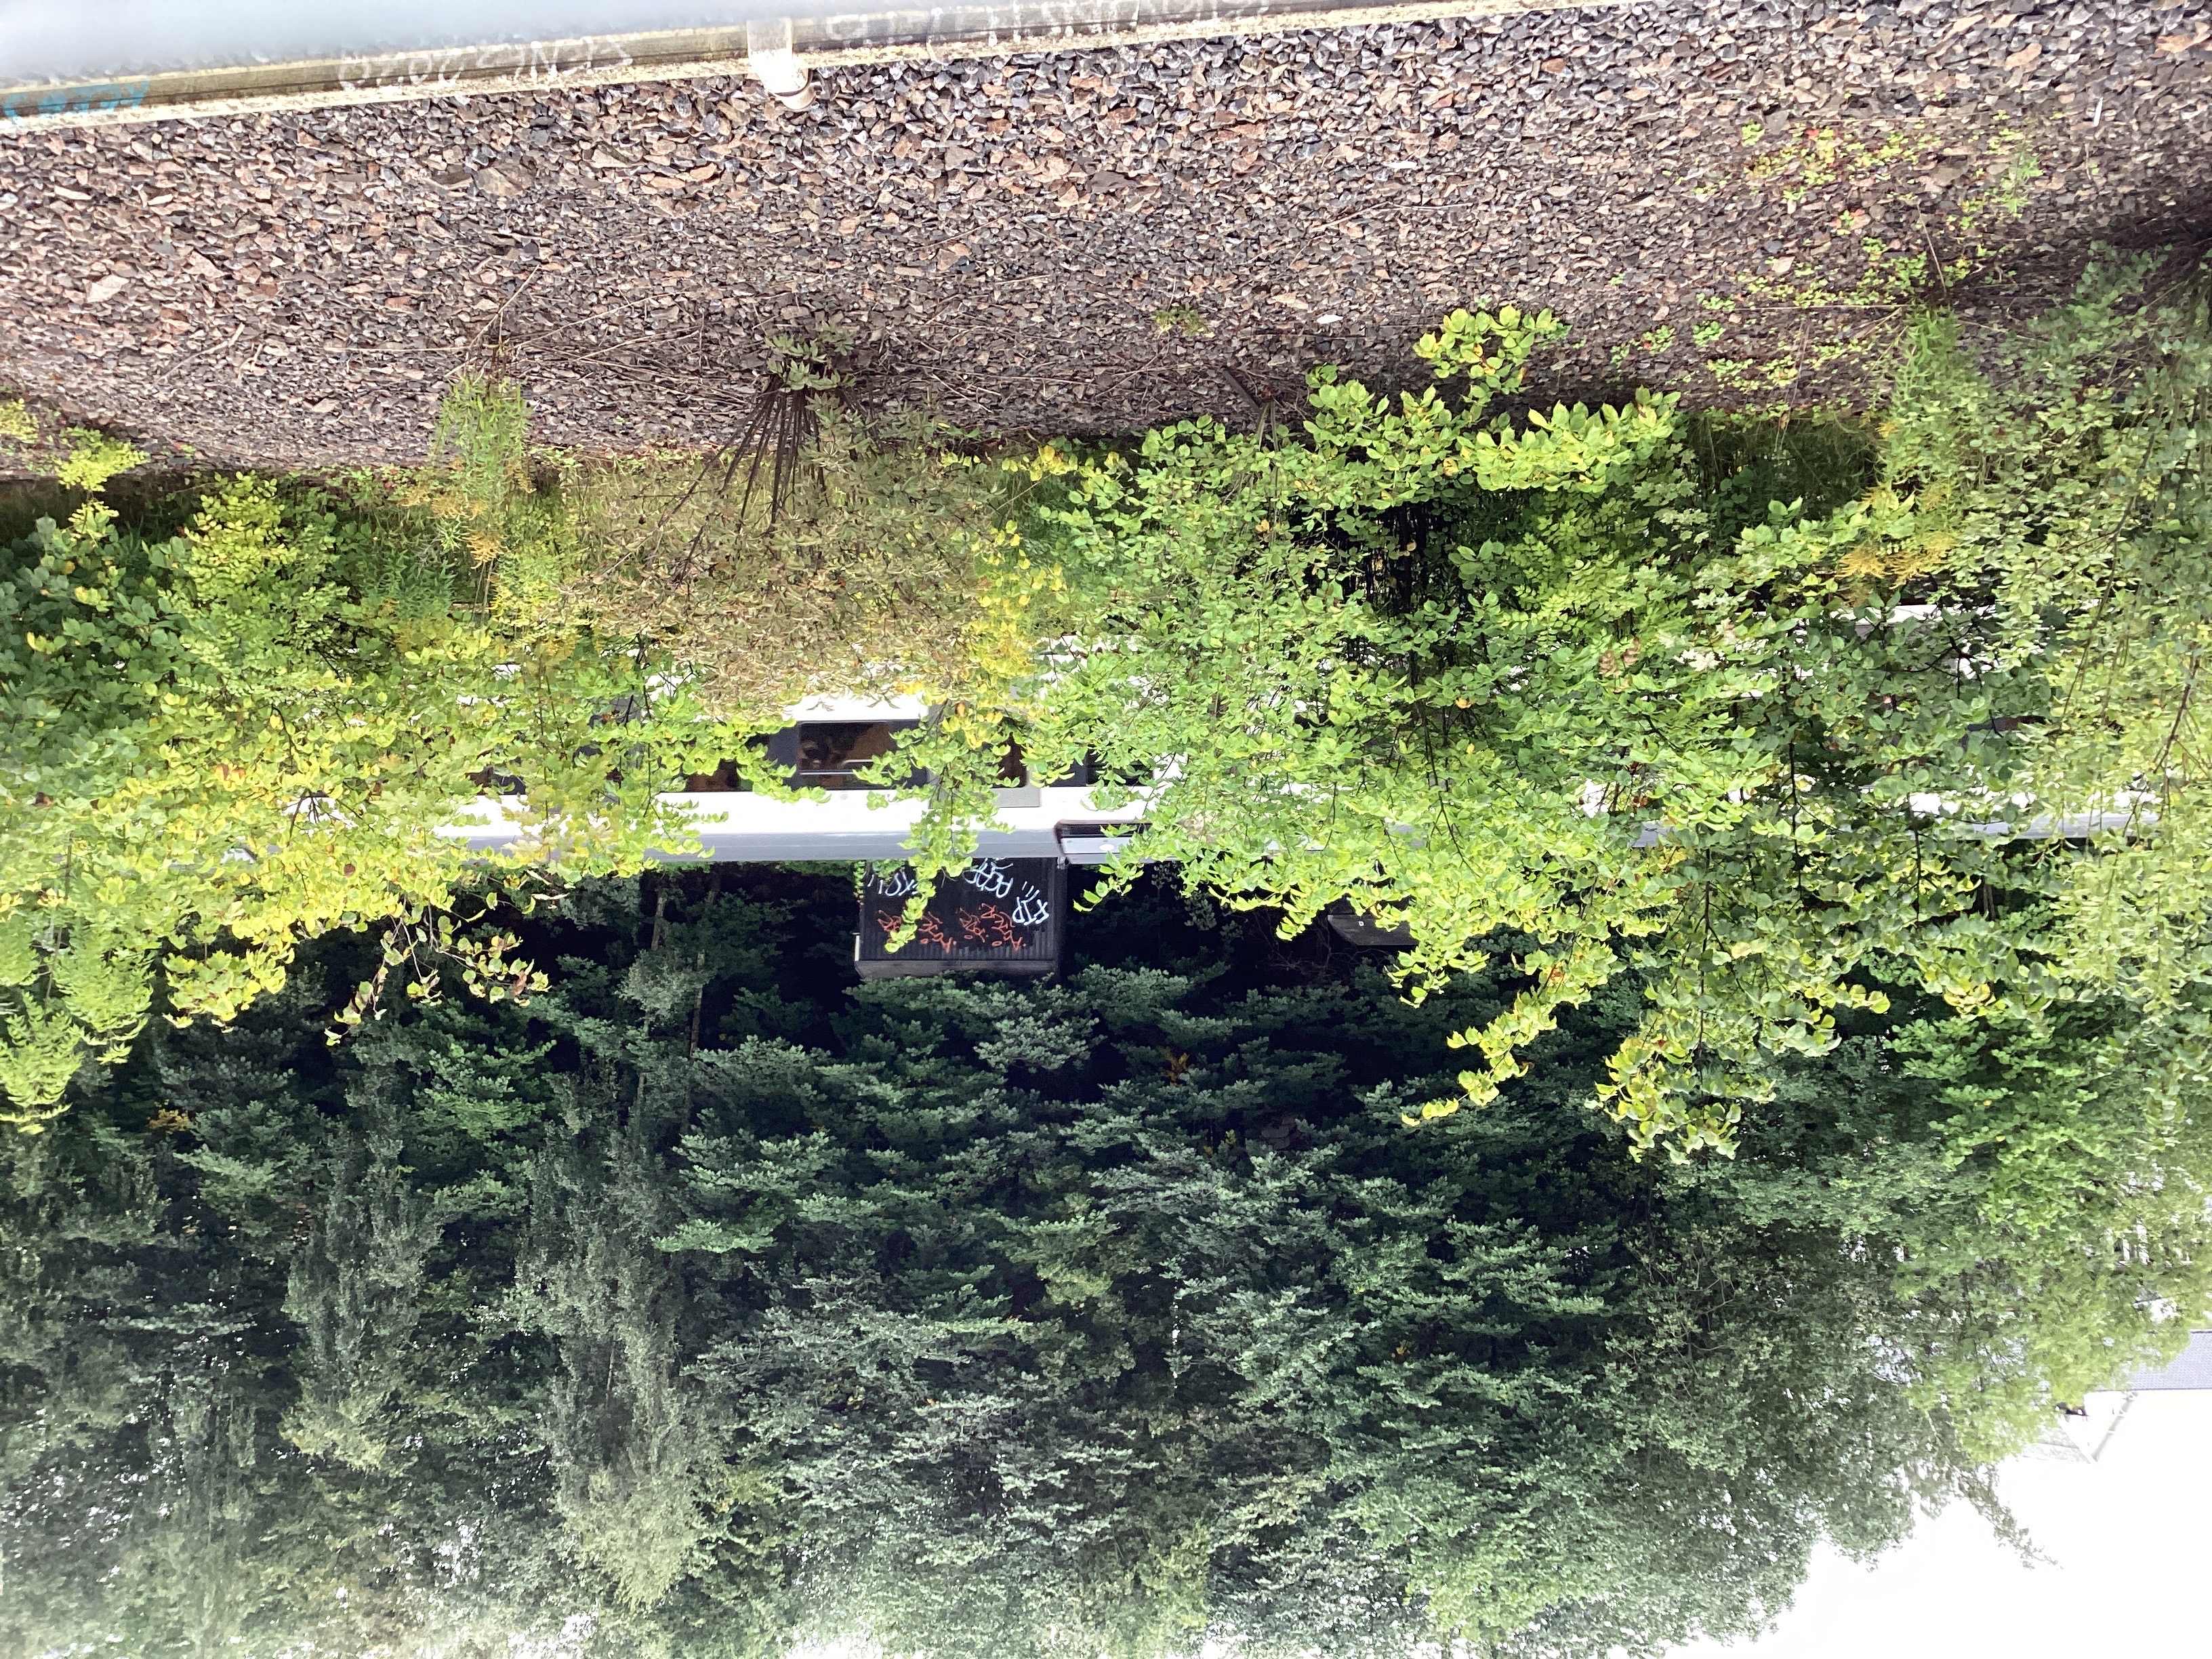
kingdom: Plantae
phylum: Tracheophyta
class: Magnoliopsida
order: Dipsacales
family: Viburnaceae
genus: Sambucus
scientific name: Sambucus racemosa
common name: rødhyll
